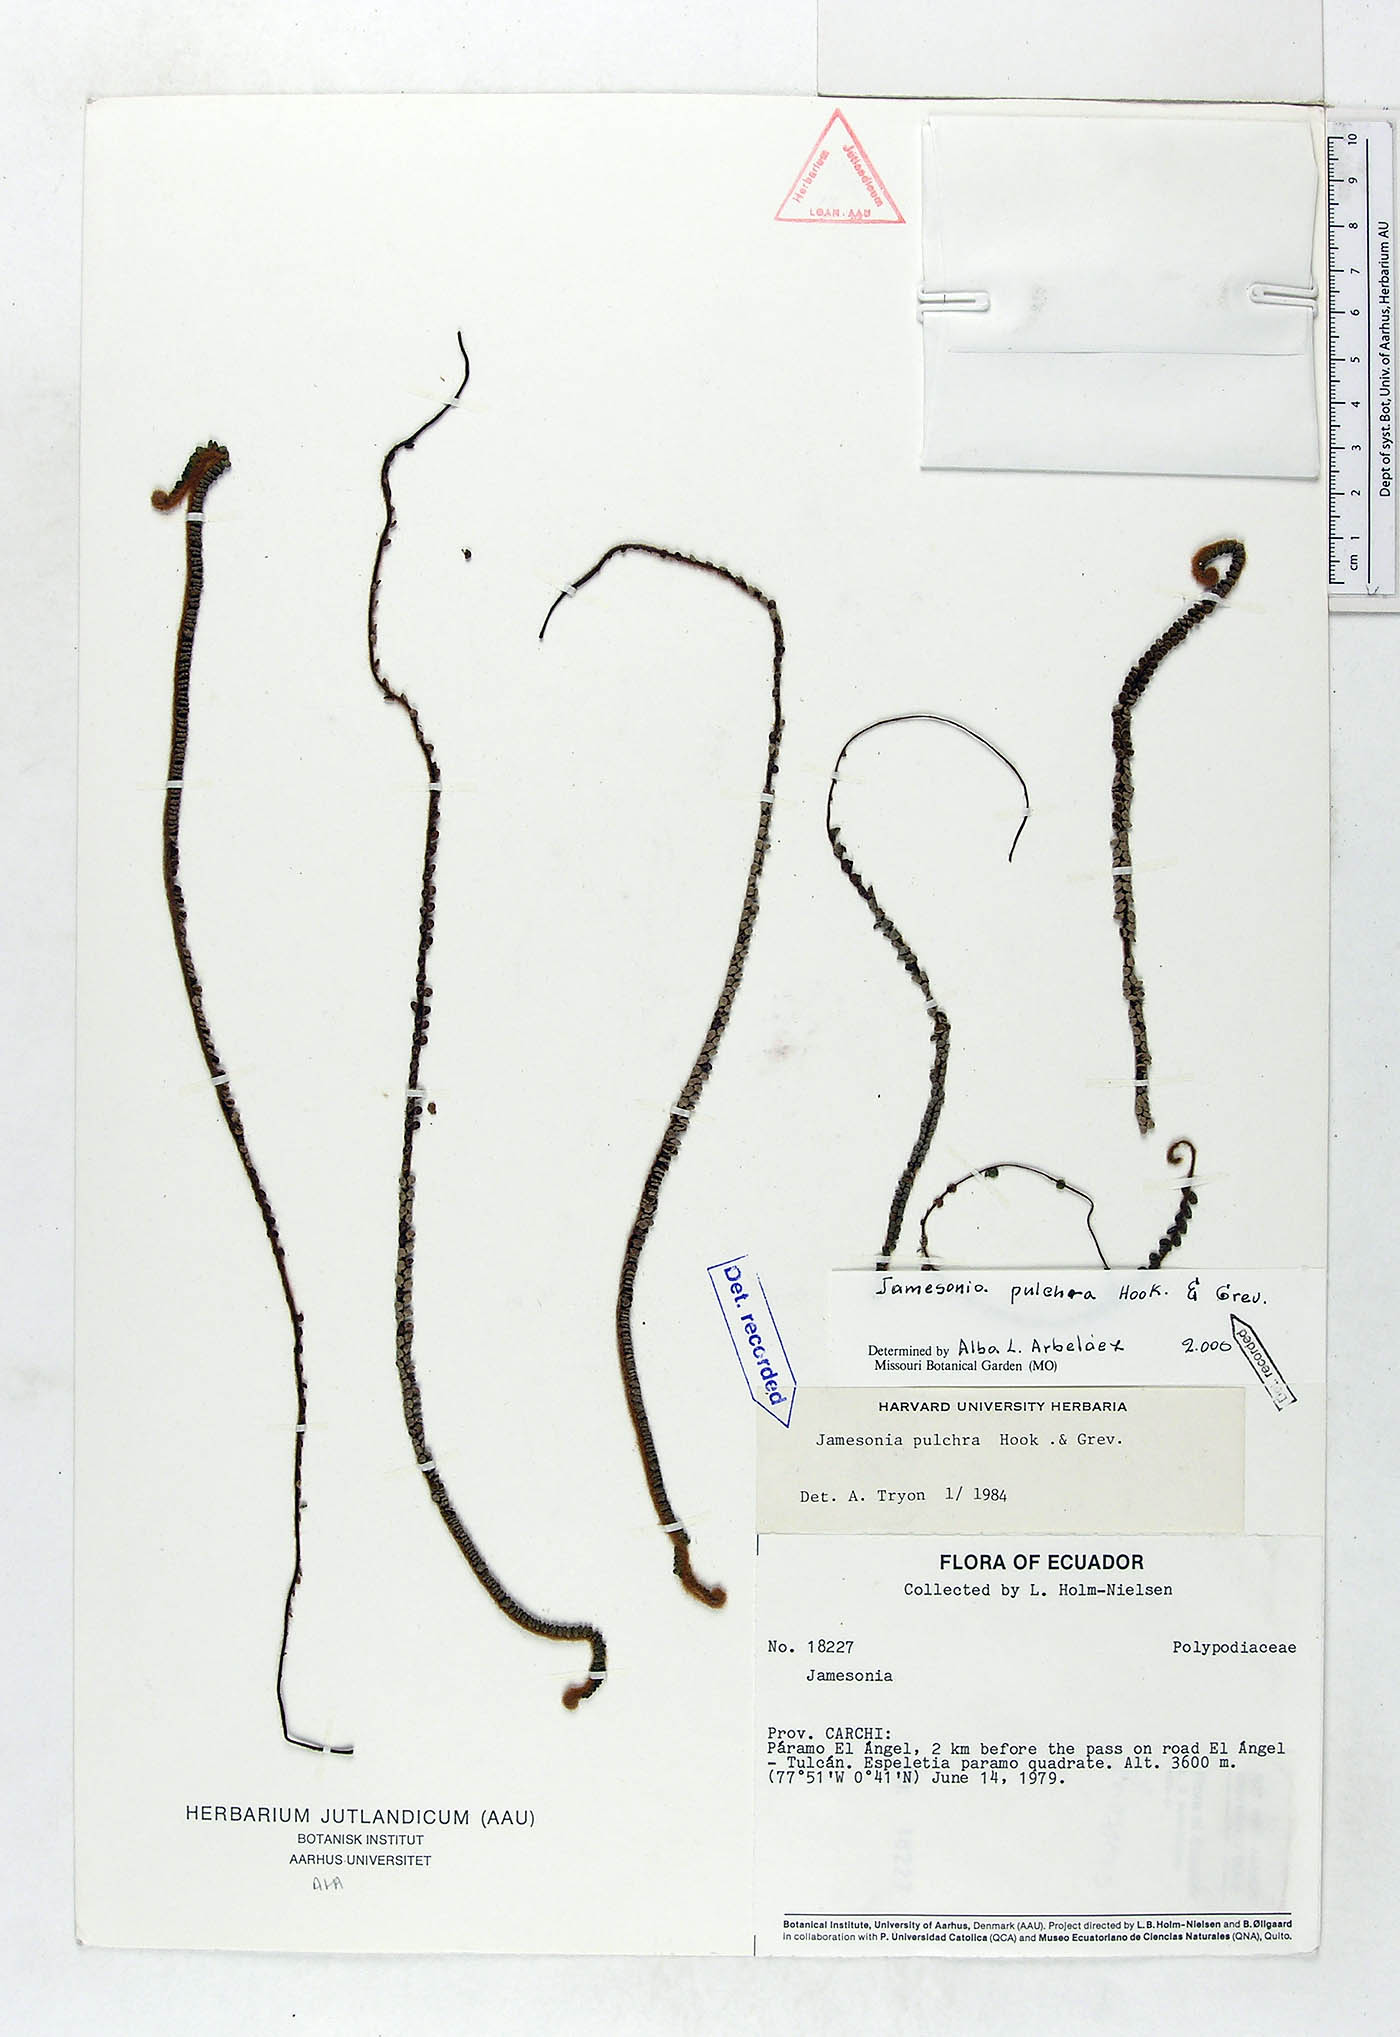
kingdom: Plantae
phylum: Tracheophyta
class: Polypodiopsida
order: Polypodiales
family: Pteridaceae
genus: Jamesonia
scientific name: Jamesonia pulchra
